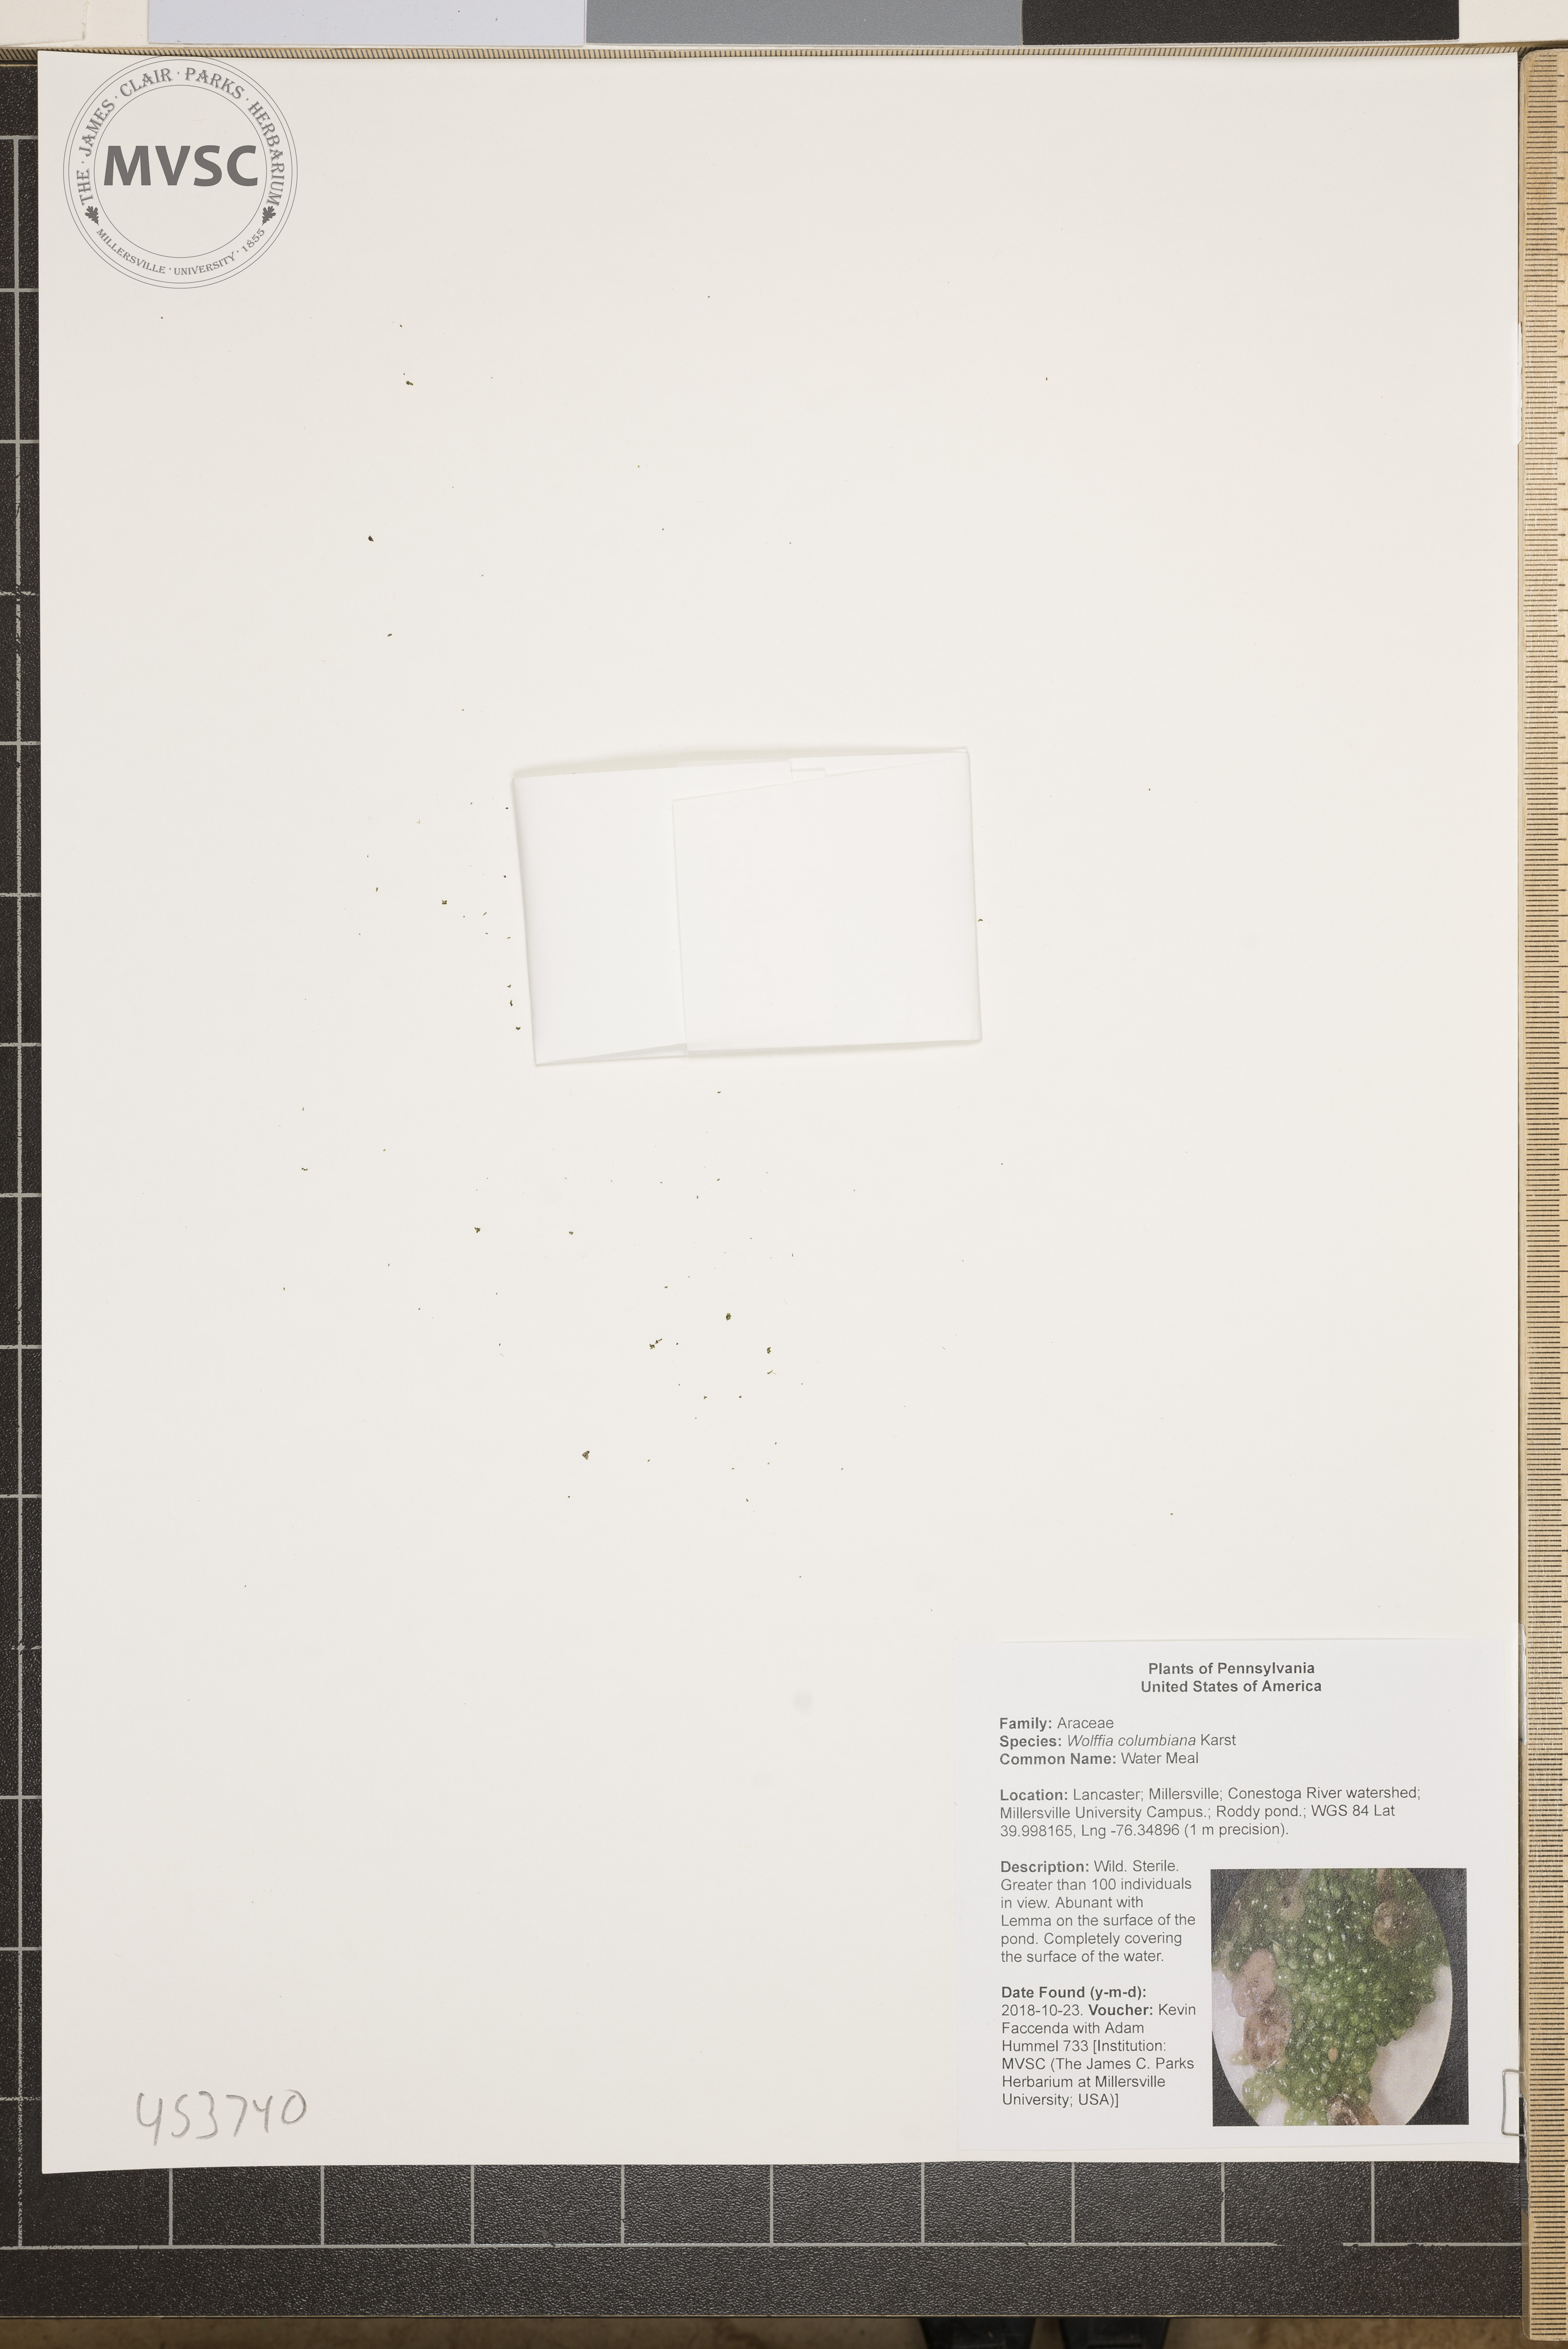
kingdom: Plantae
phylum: Tracheophyta
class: Liliopsida
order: Alismatales
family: Araceae
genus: Wolffia
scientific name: Wolffia columbiana
